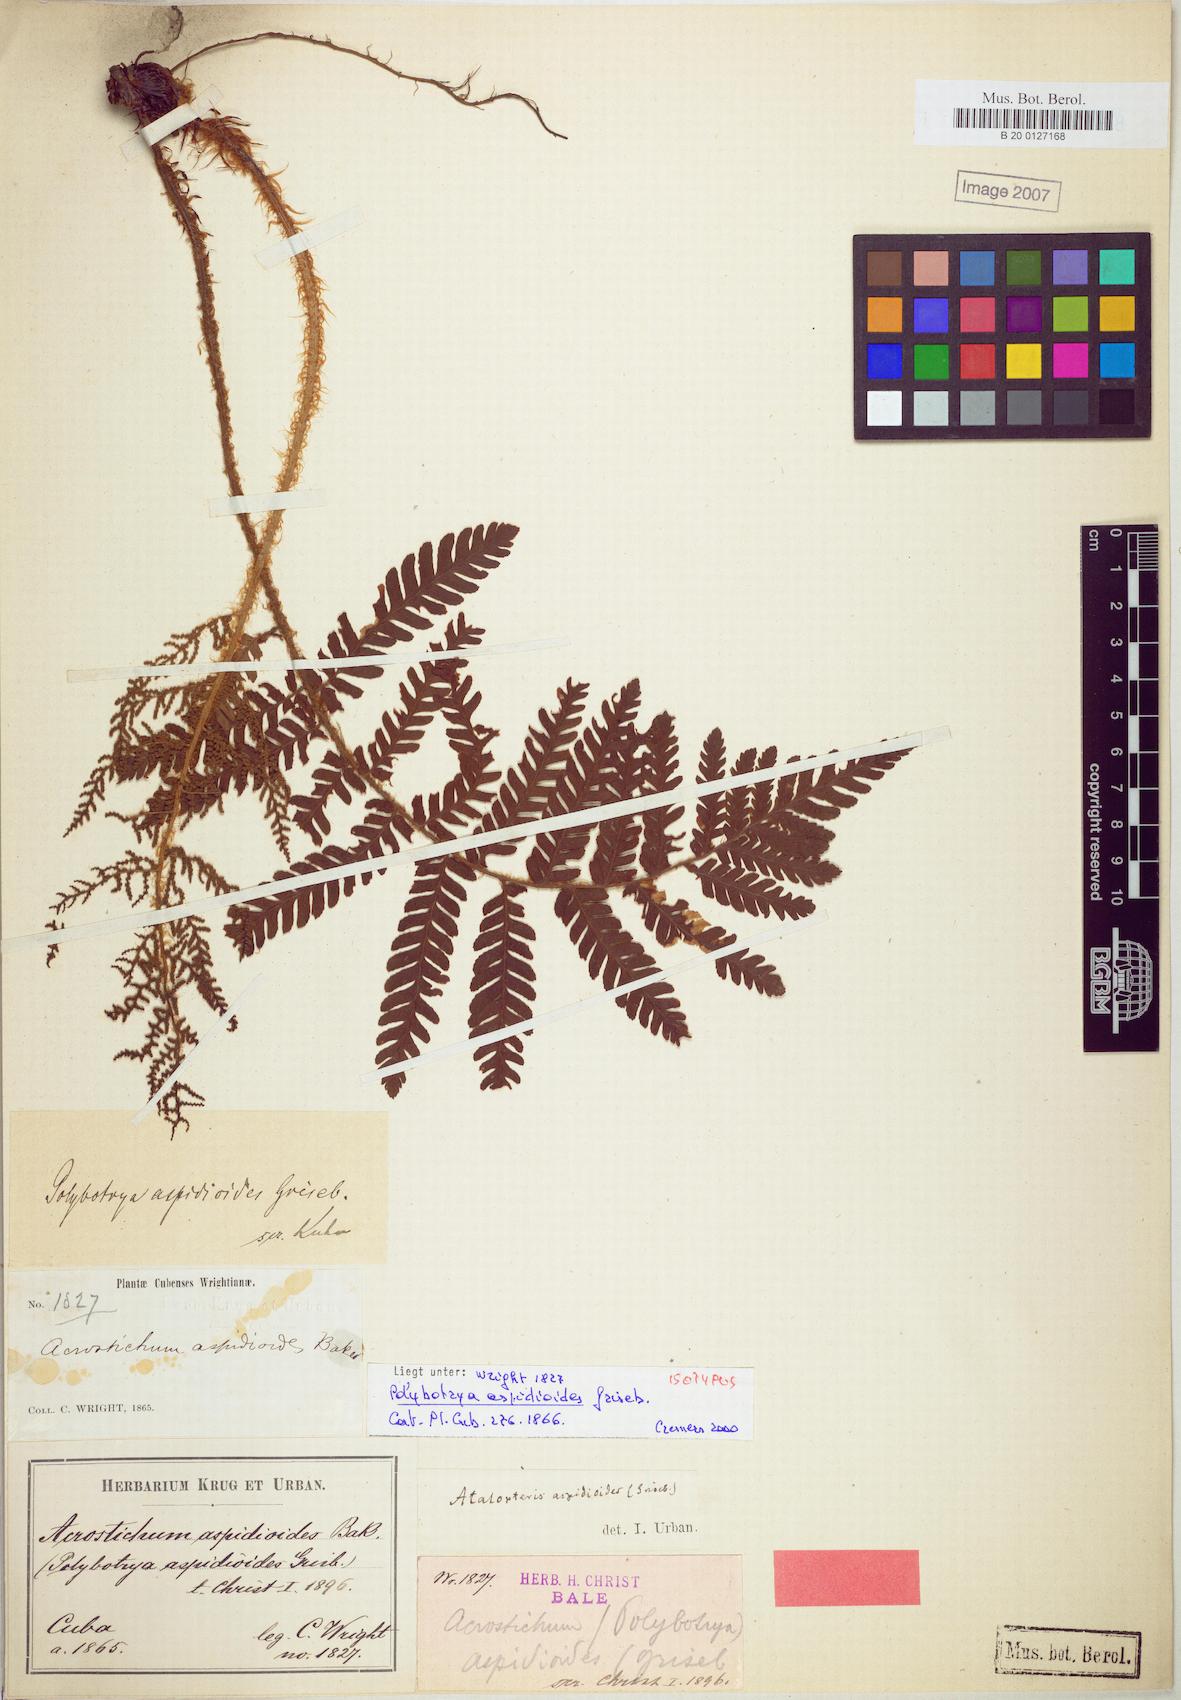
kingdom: Plantae
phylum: Tracheophyta
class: Polypodiopsida
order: Polypodiales
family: Dryopteridaceae
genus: Atalopteris
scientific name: Atalopteris aspidioides
